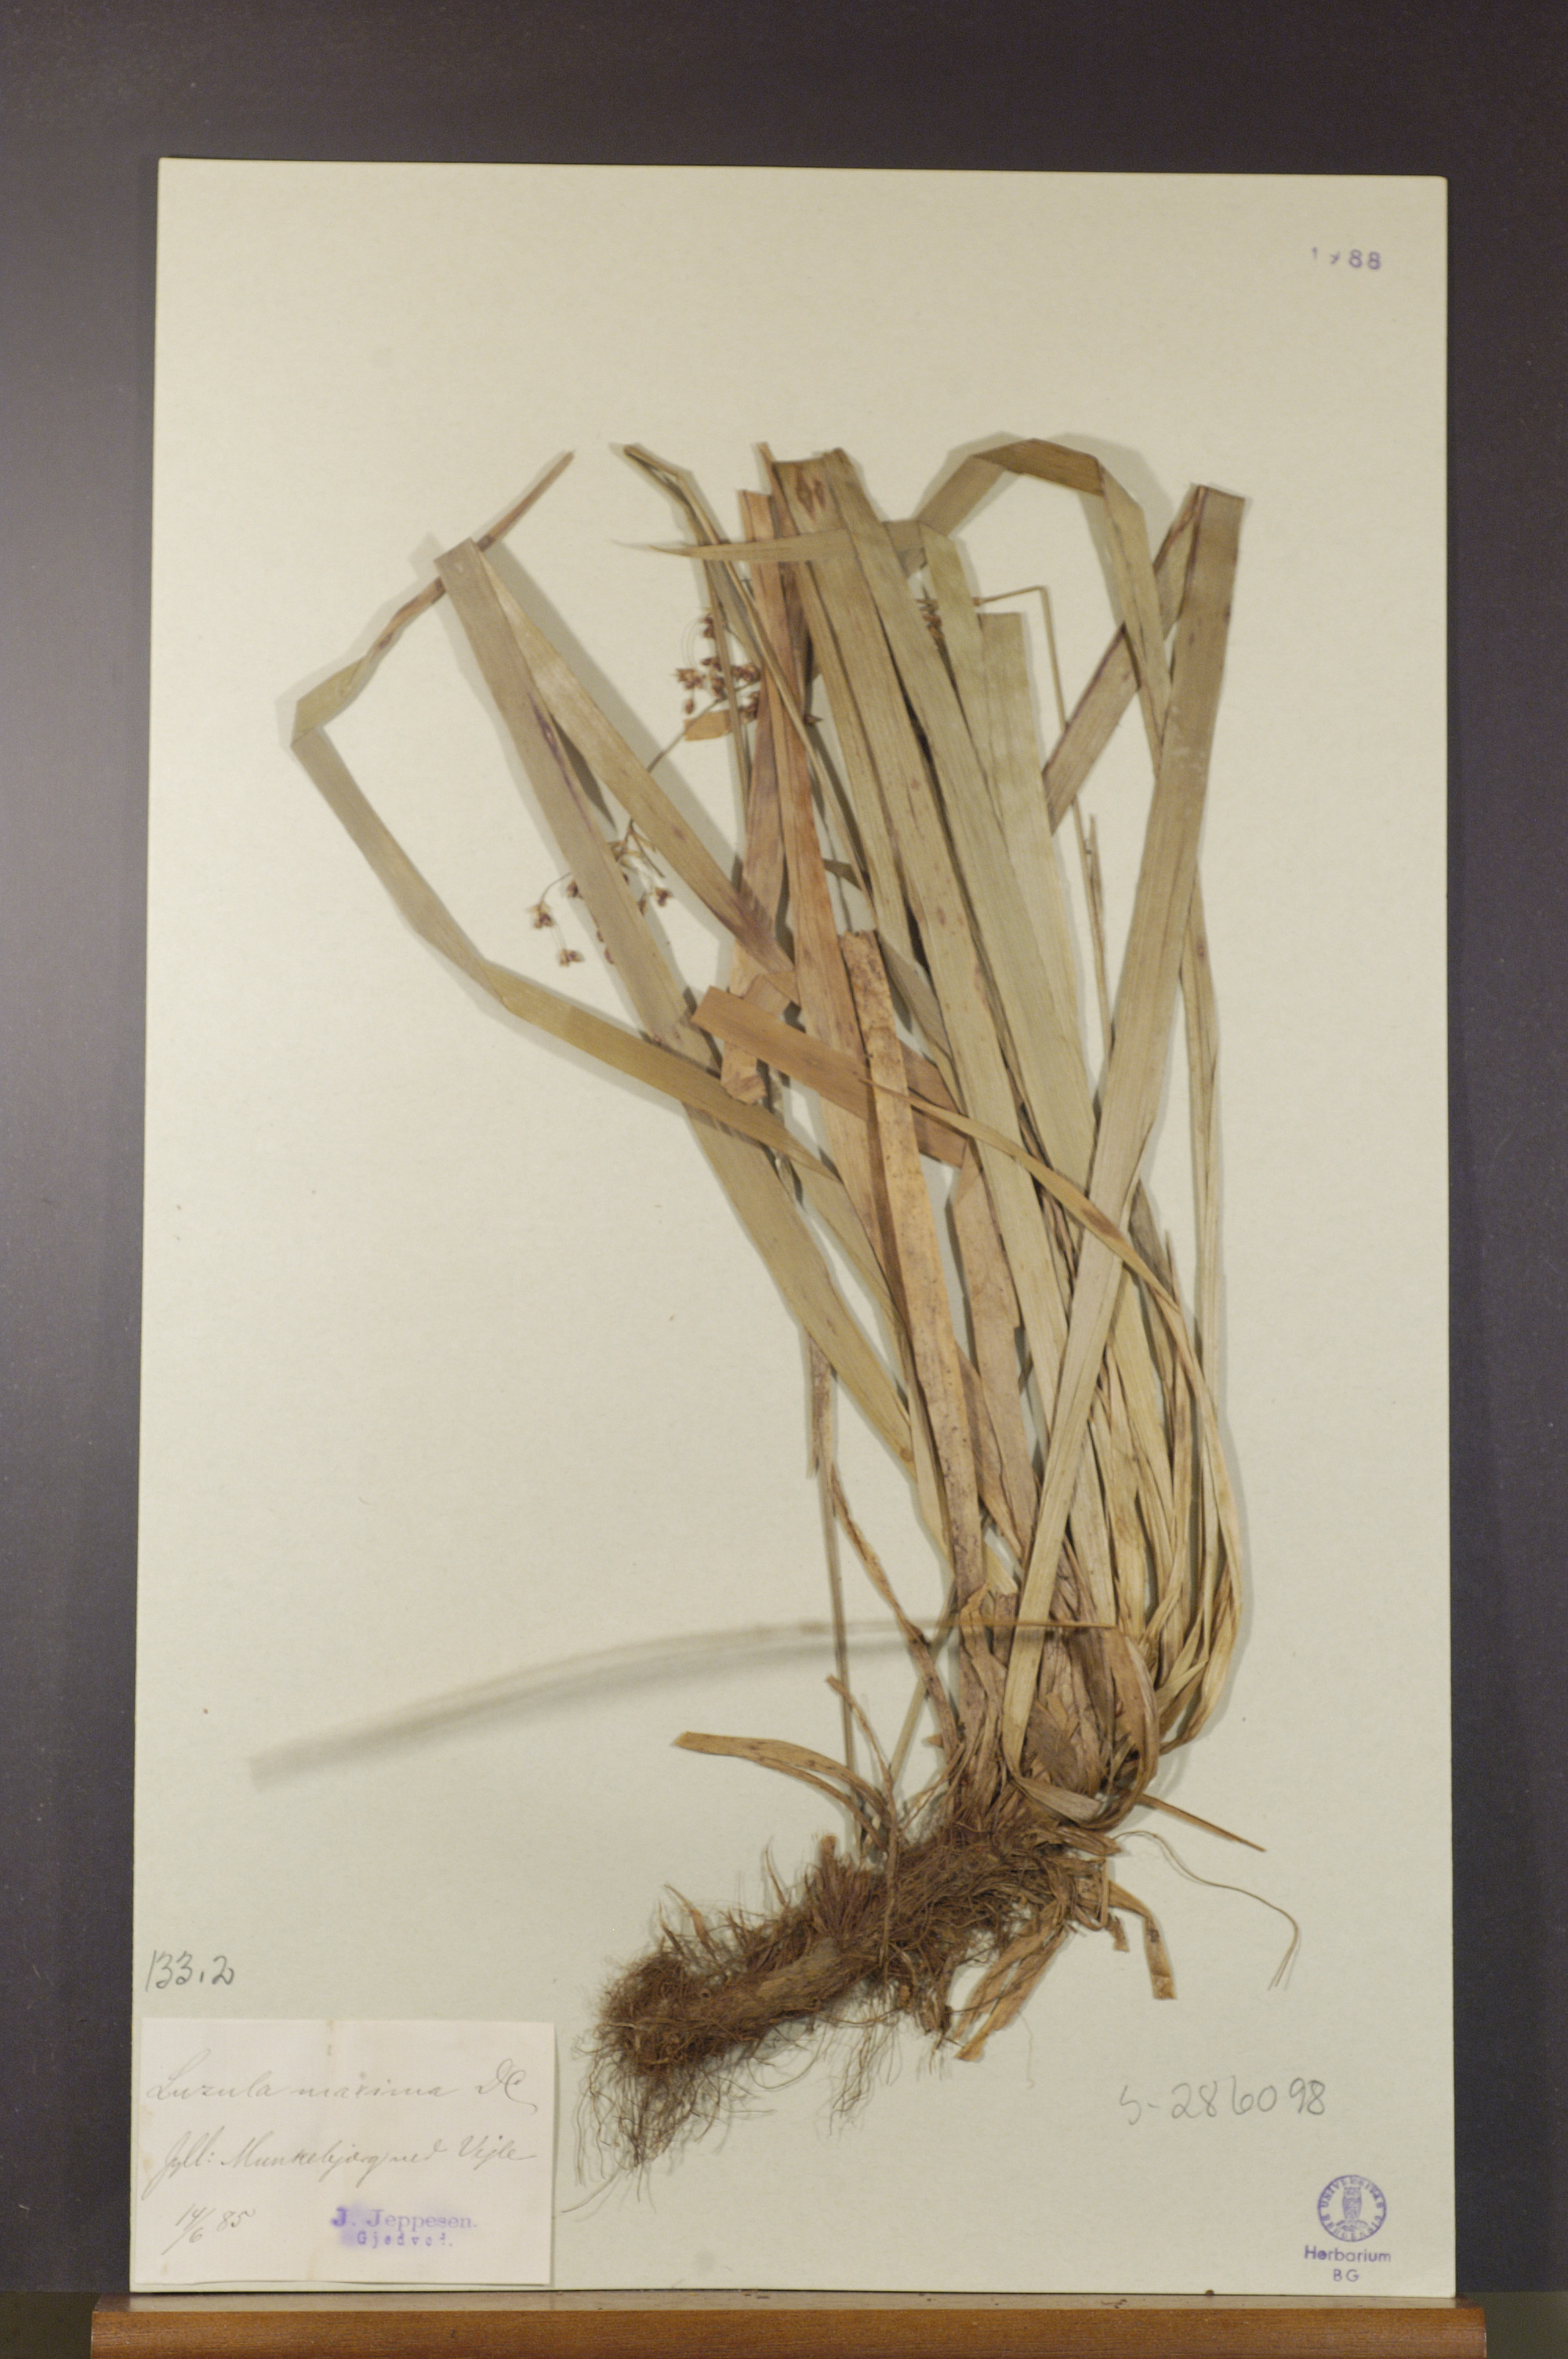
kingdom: Plantae
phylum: Tracheophyta
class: Liliopsida
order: Poales
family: Juncaceae
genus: Luzula
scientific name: Luzula sylvatica
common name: Great wood-rush
